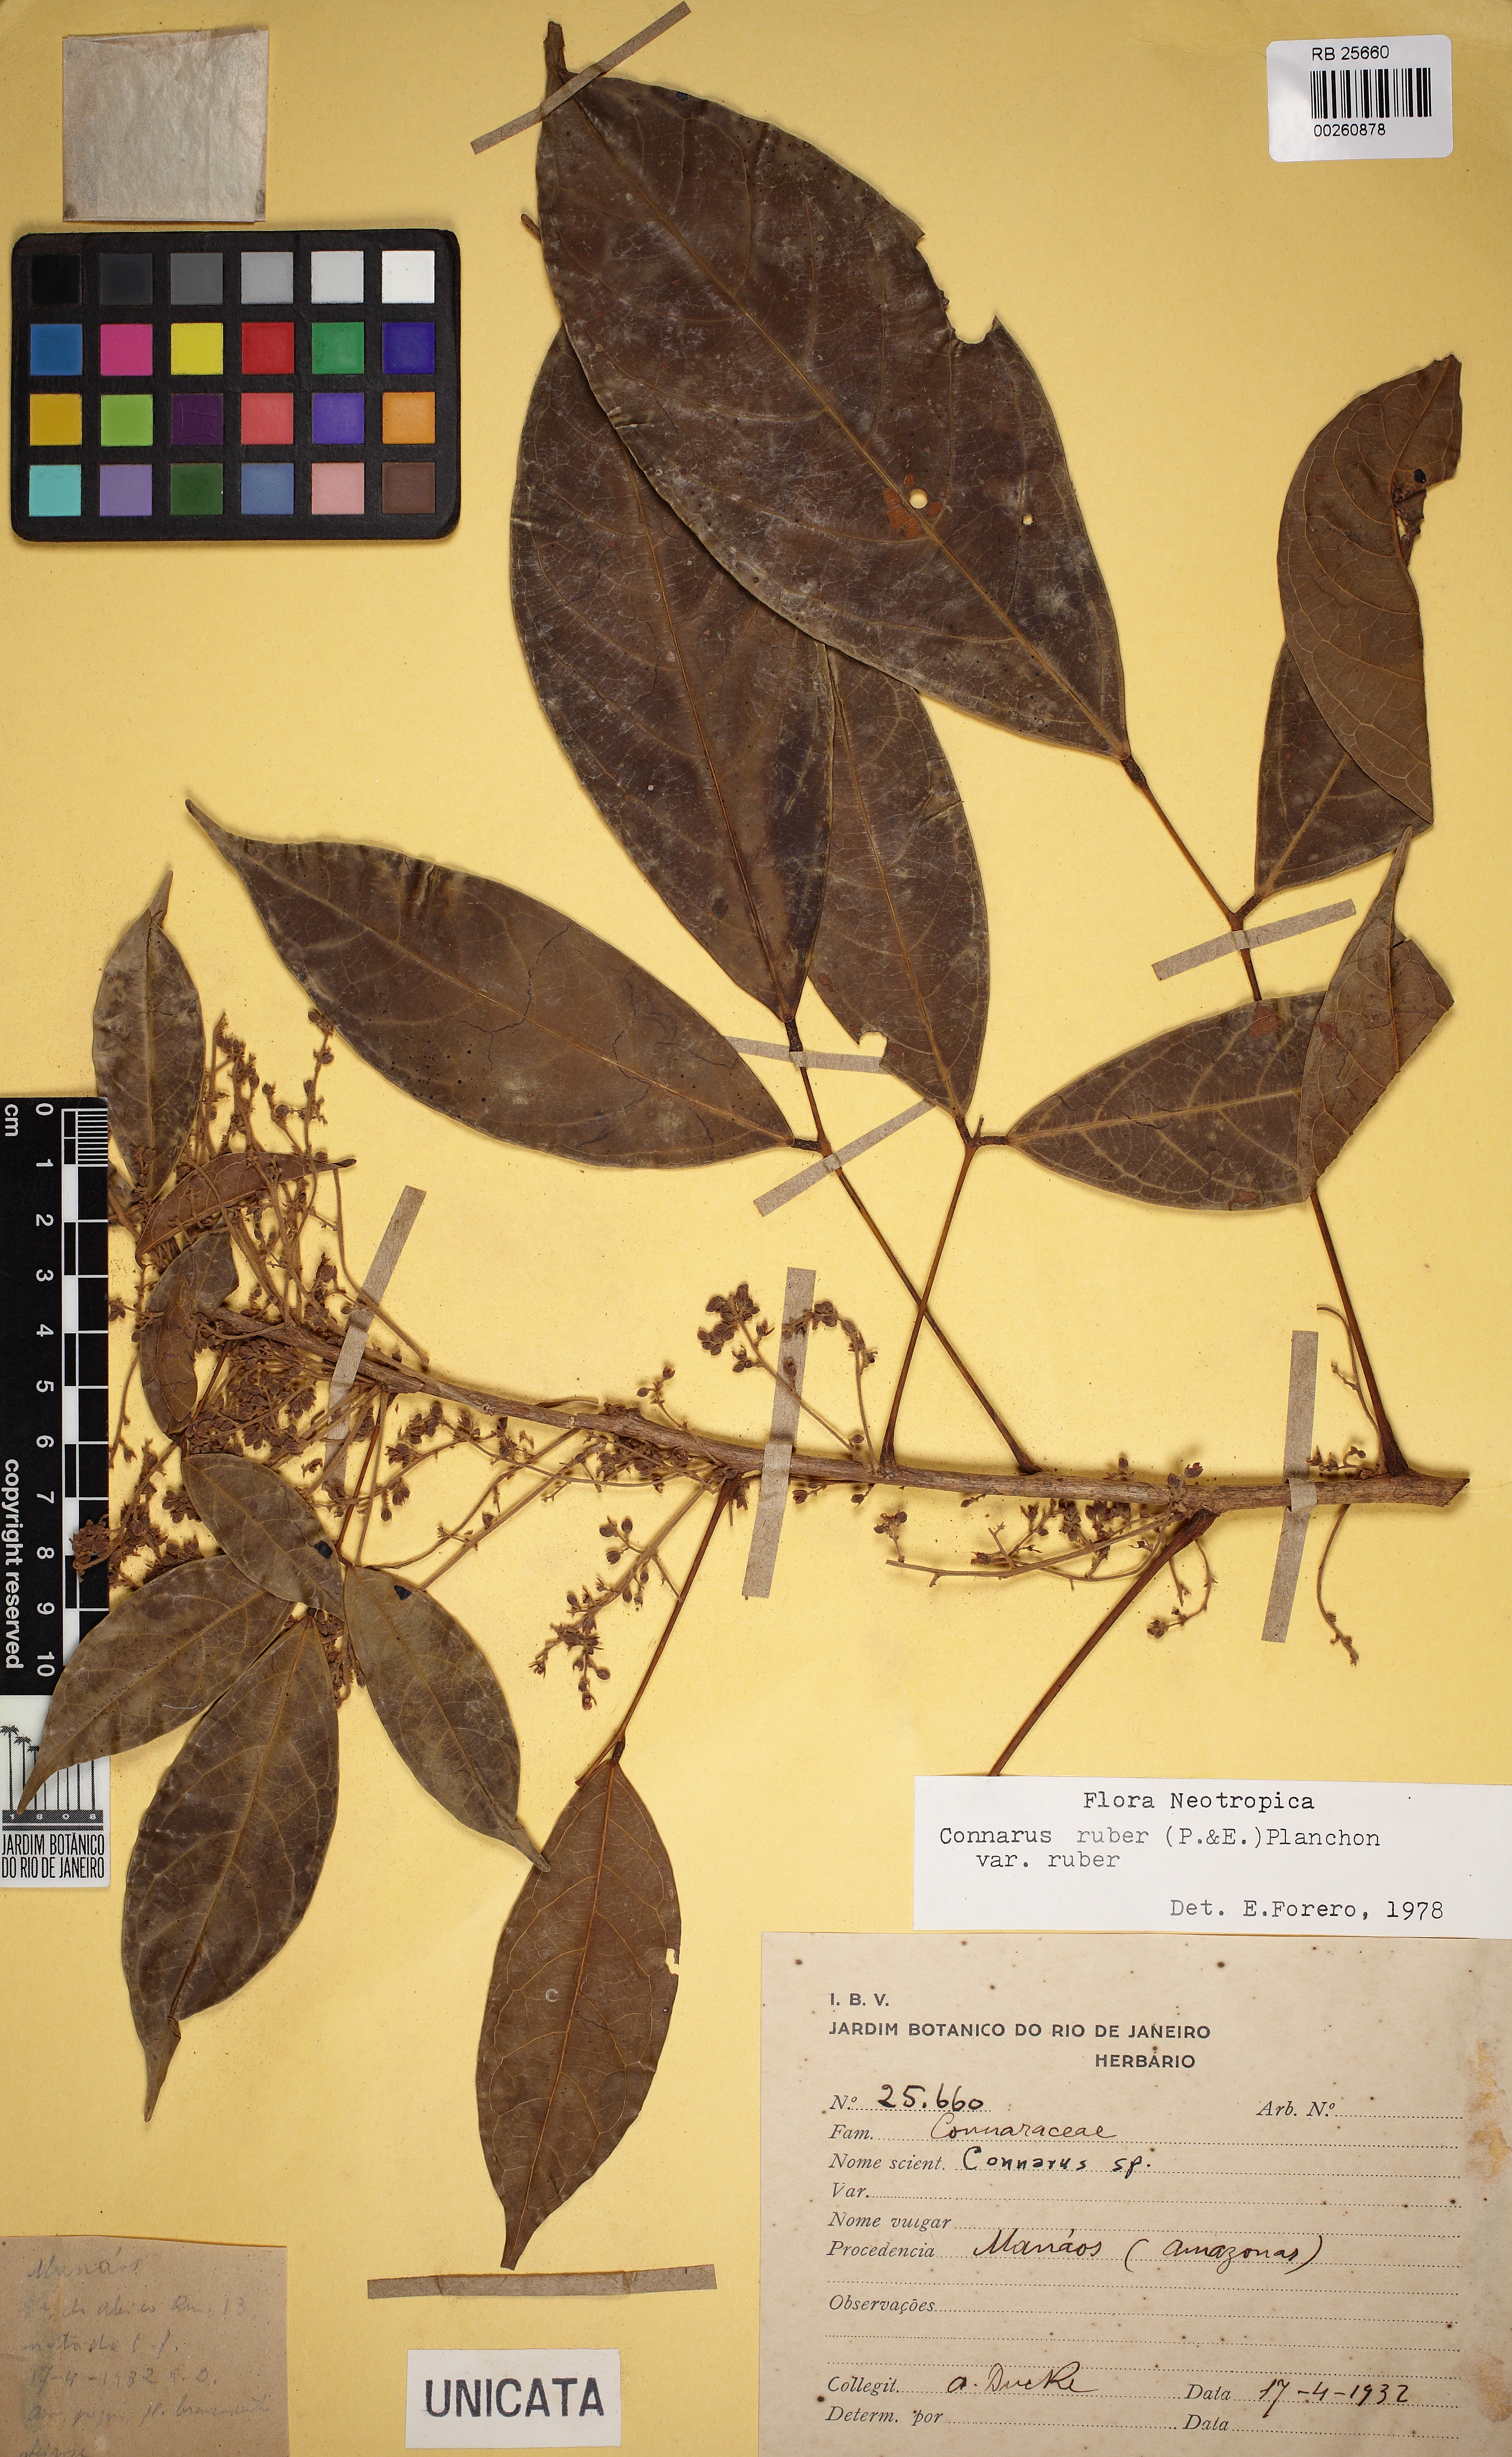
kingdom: Plantae
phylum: Tracheophyta
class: Magnoliopsida
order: Oxalidales
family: Connaraceae
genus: Connarus
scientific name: Connarus ruber
